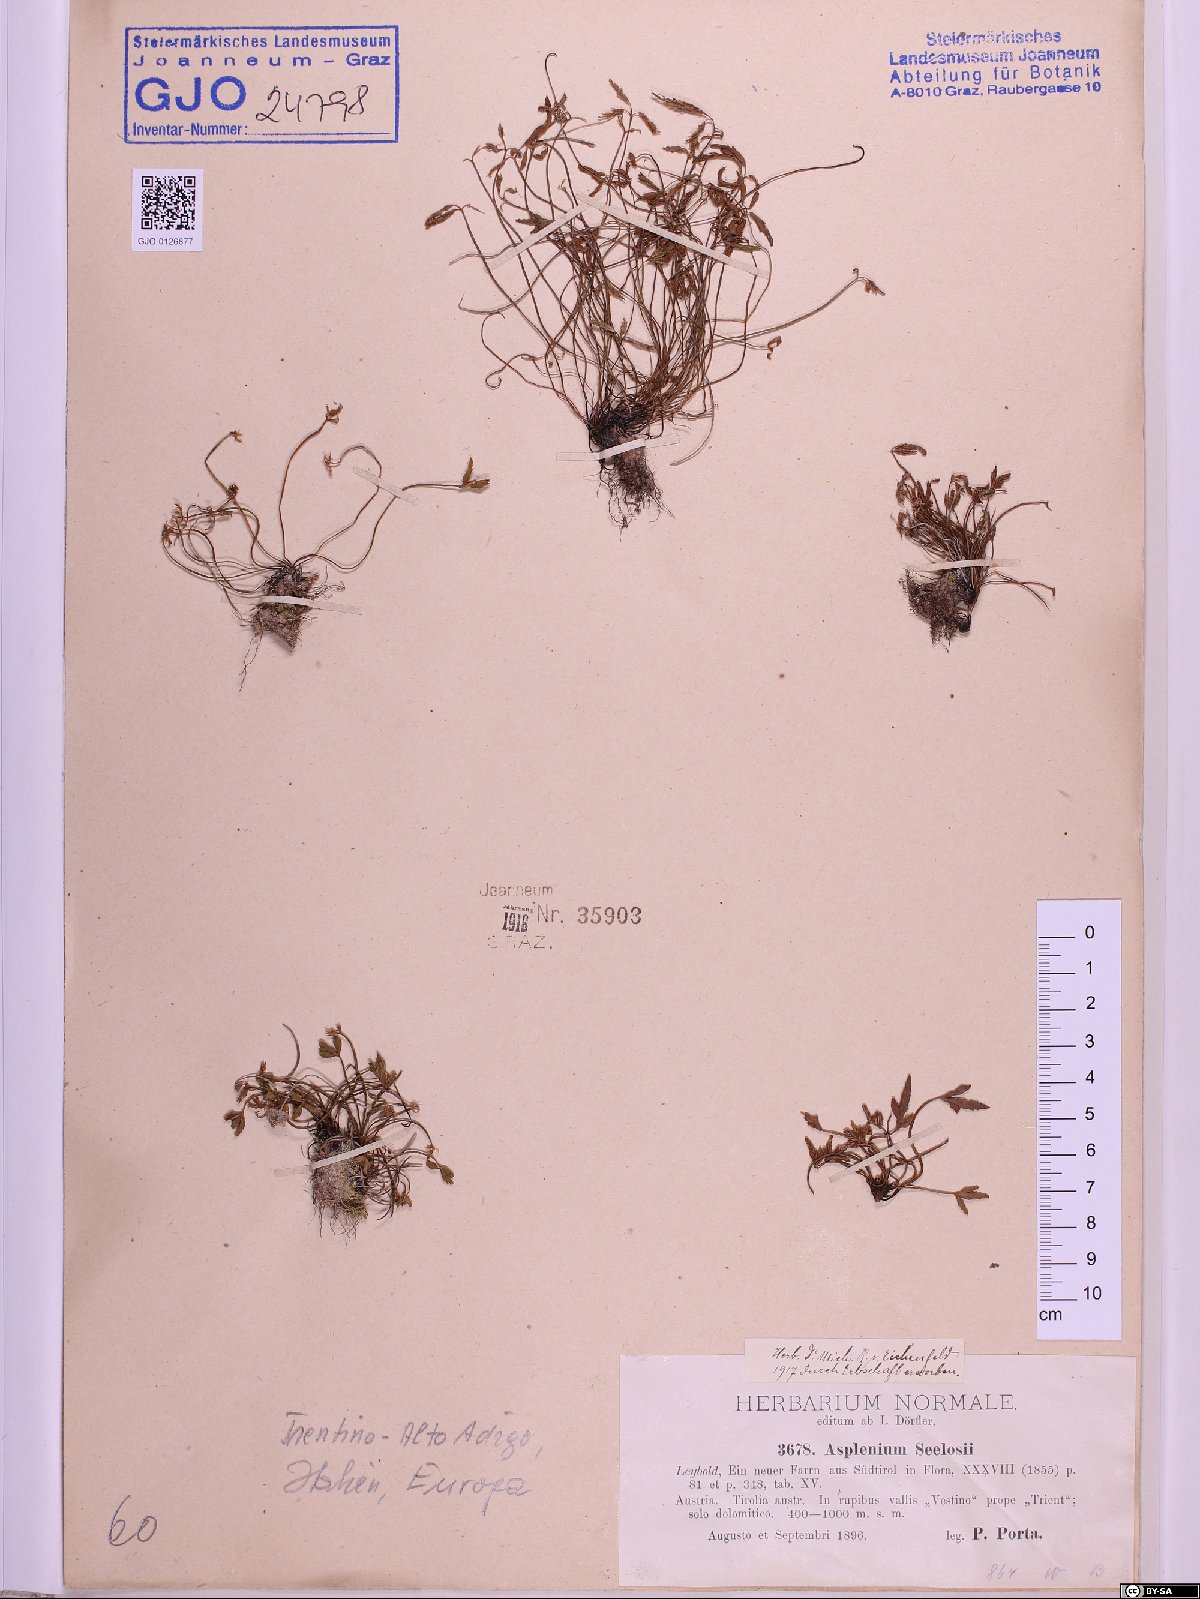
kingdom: Plantae
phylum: Tracheophyta
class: Polypodiopsida
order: Polypodiales
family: Aspleniaceae
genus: Asplenium
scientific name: Asplenium seelosii
